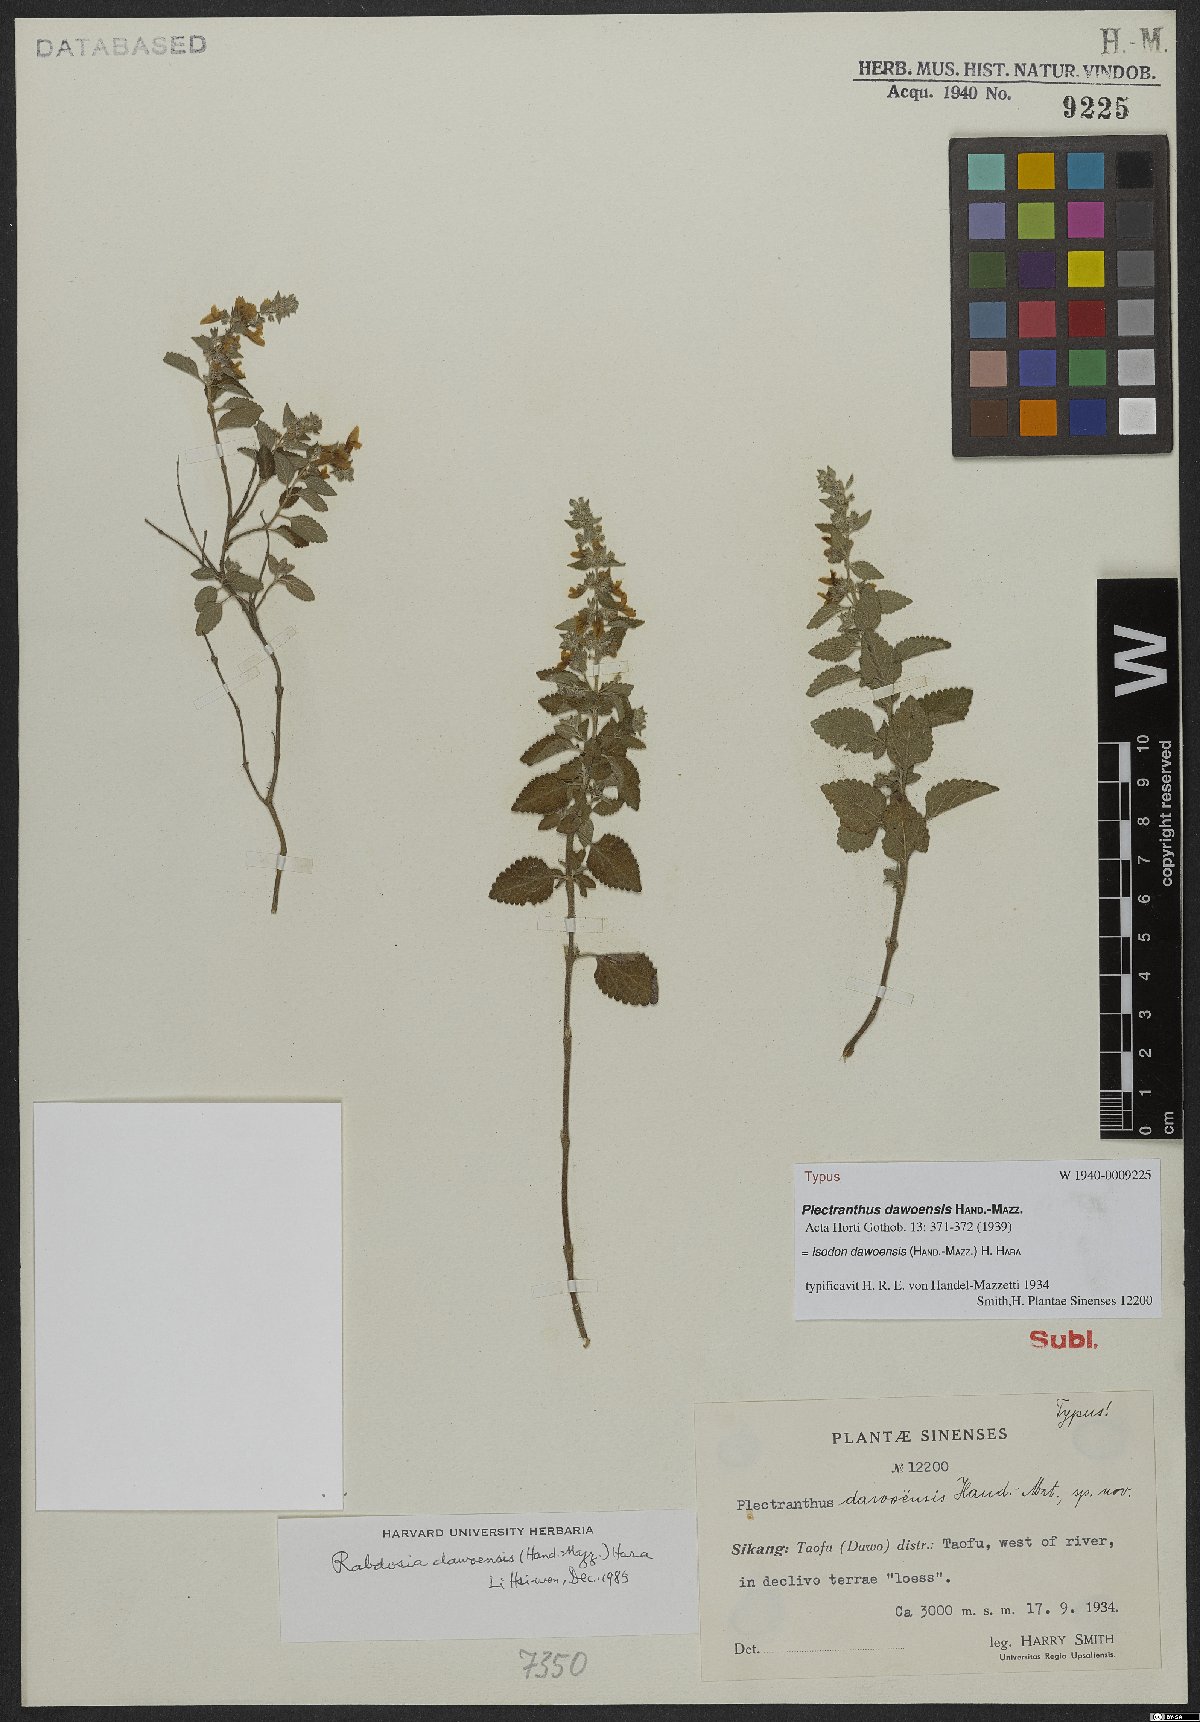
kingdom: Plantae
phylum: Tracheophyta
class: Magnoliopsida
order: Lamiales
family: Lamiaceae
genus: Isodon
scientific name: Isodon dawoensis
